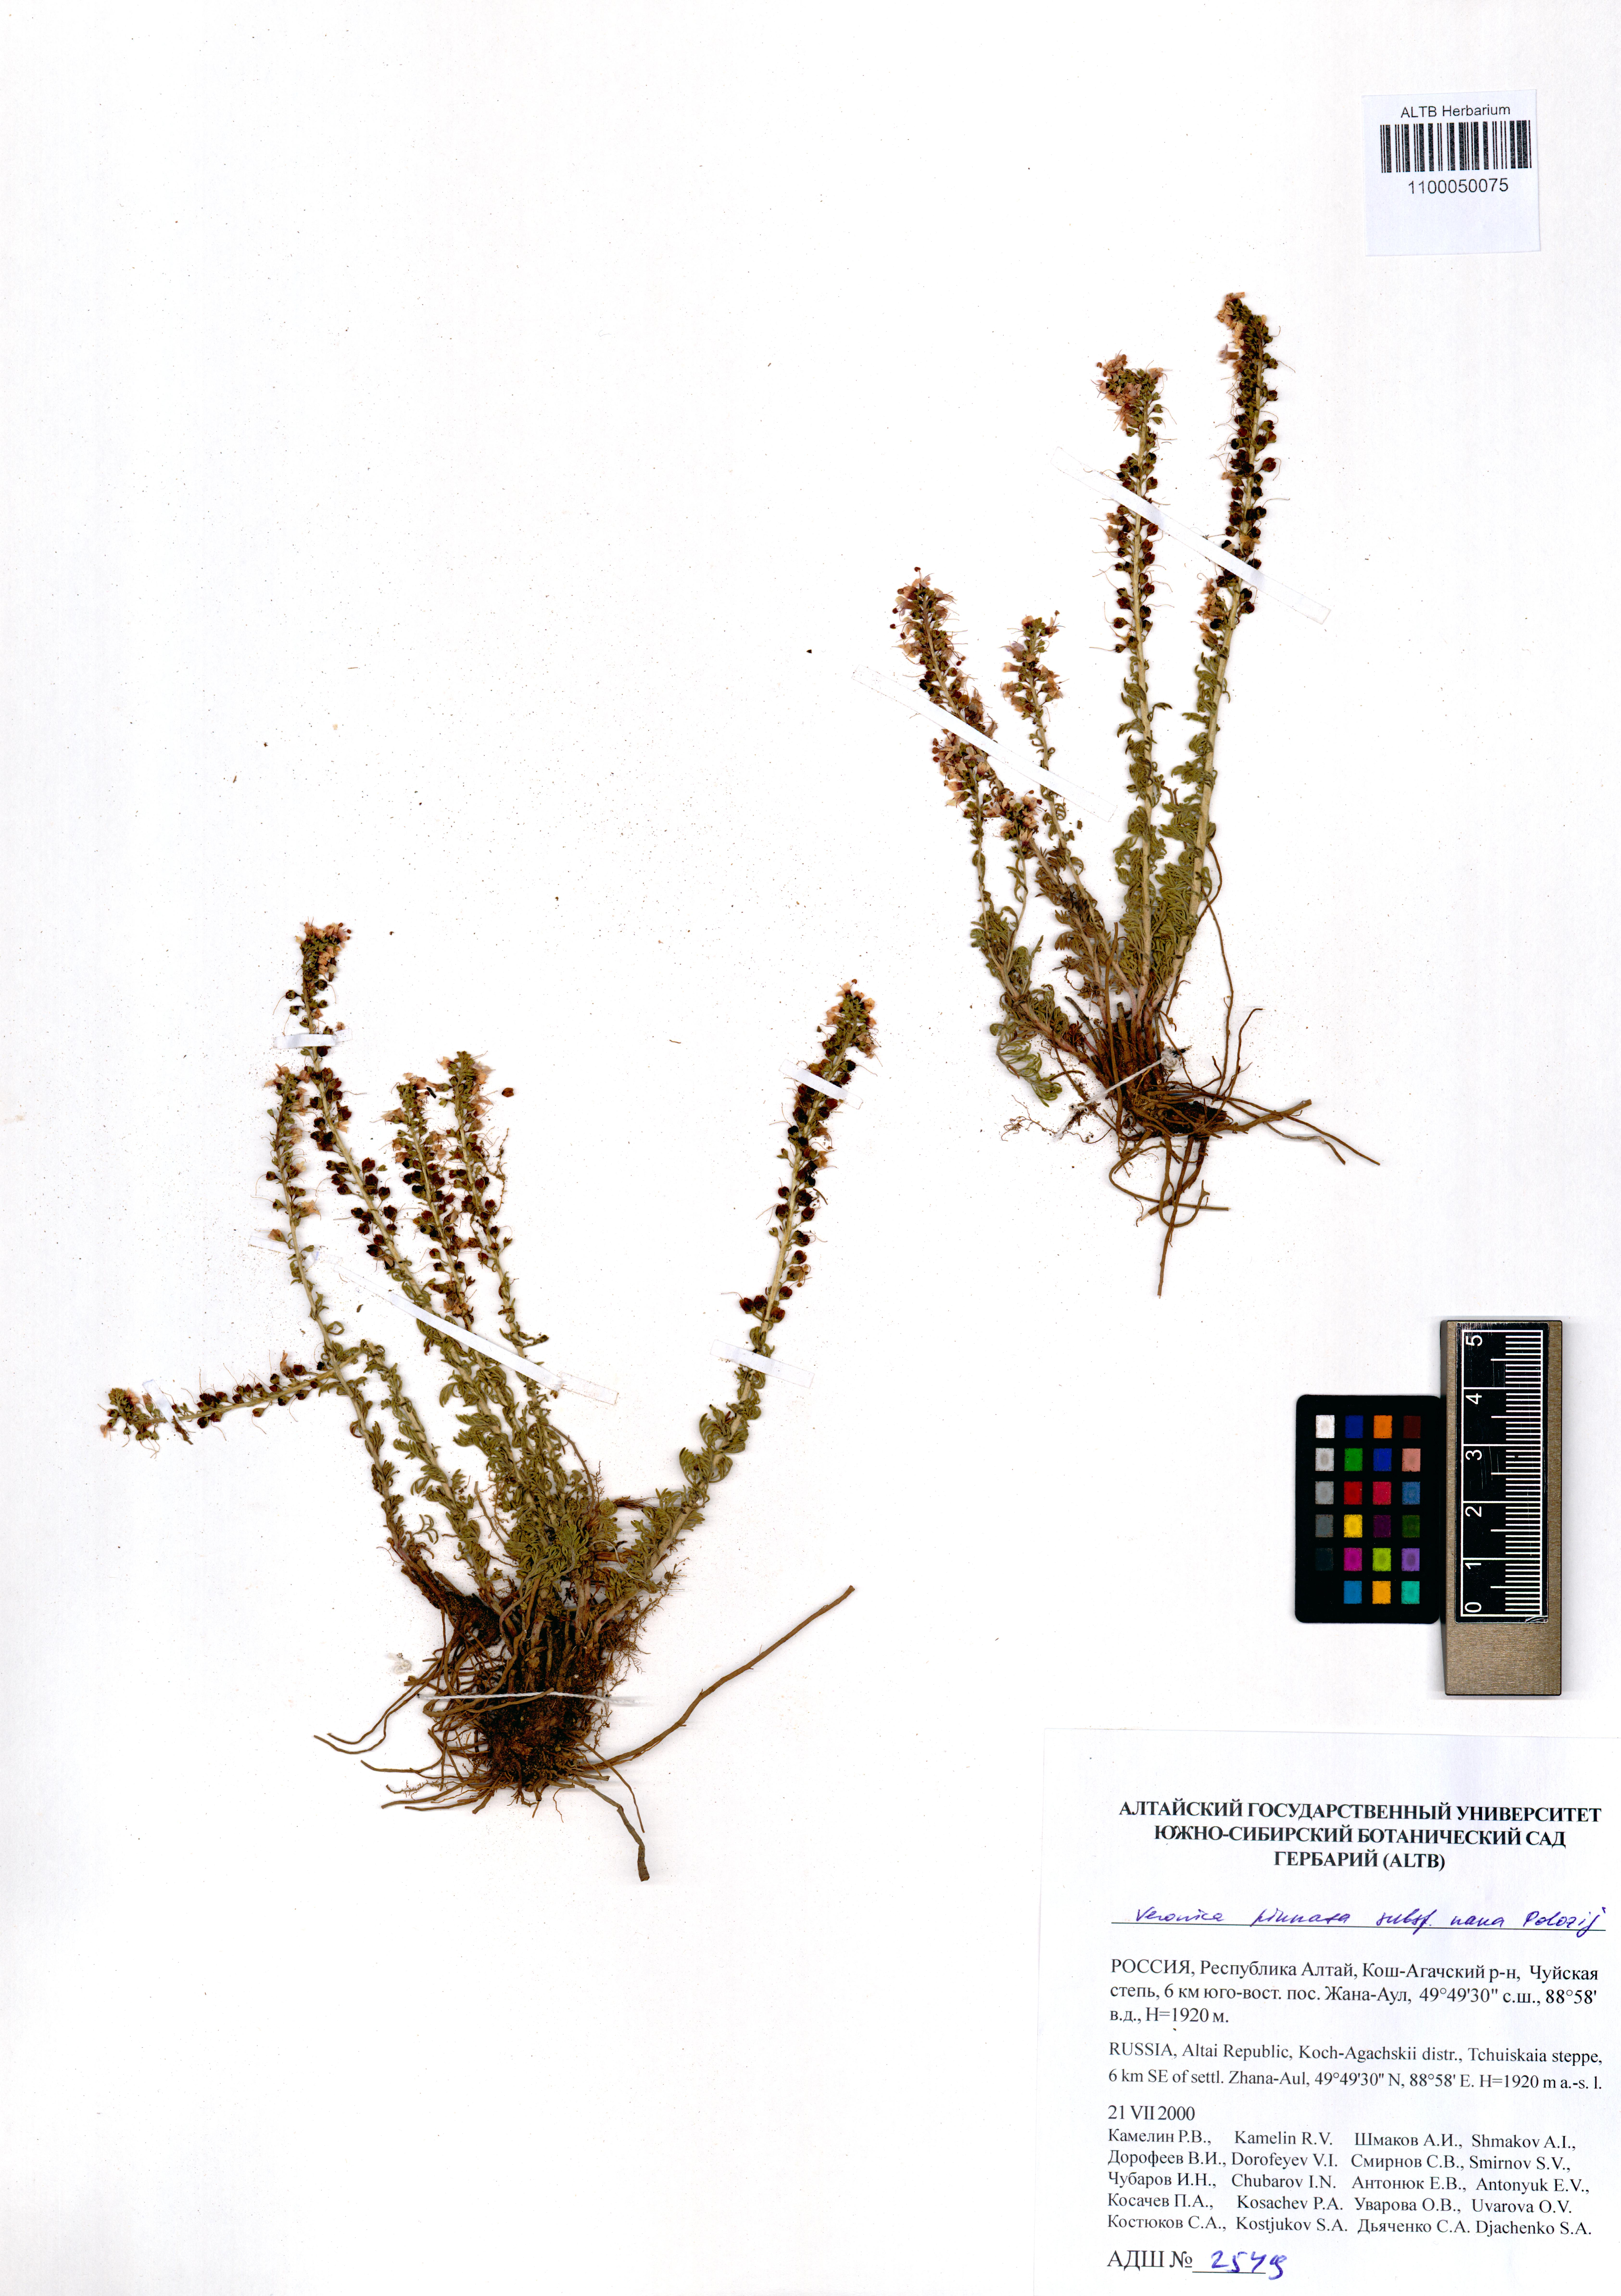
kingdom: Plantae
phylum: Tracheophyta
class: Magnoliopsida
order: Lamiales
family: Plantaginaceae
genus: Veronica
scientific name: Veronica pinnata
